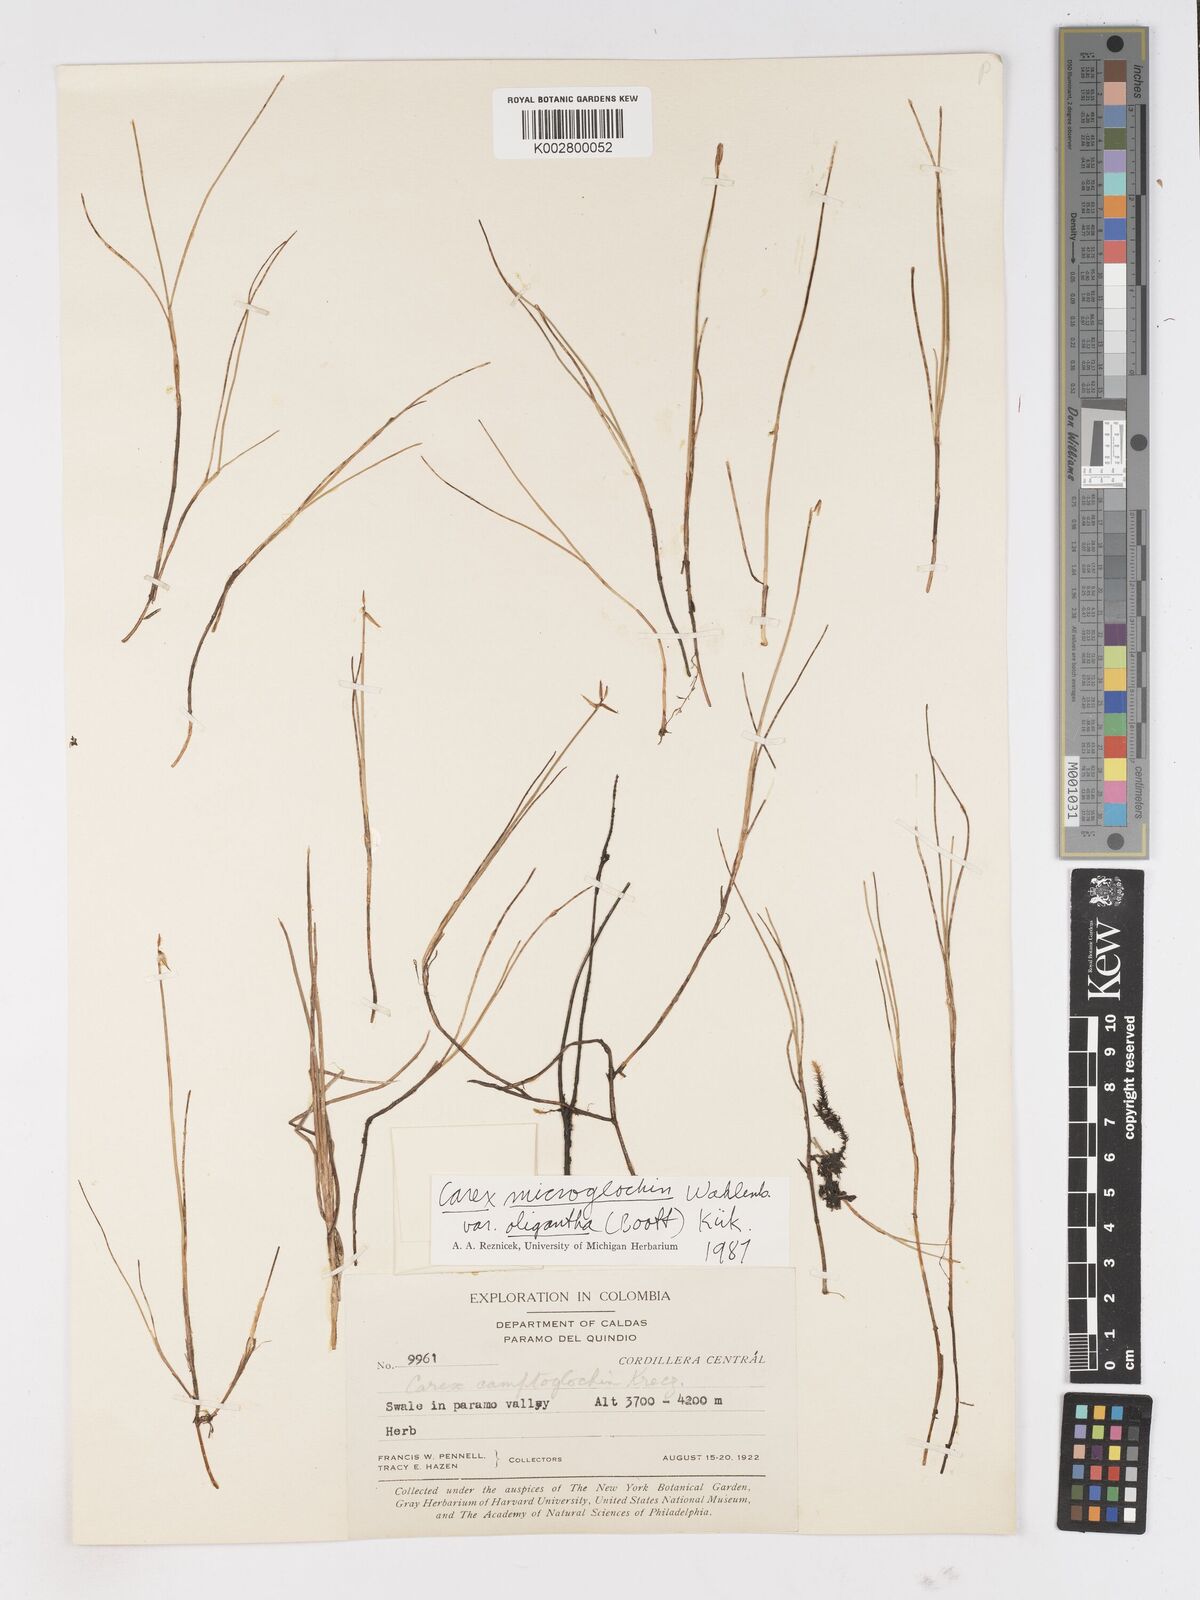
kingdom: Plantae
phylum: Tracheophyta
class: Liliopsida
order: Poales
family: Cyperaceae
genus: Carex
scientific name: Carex camptoglochin
